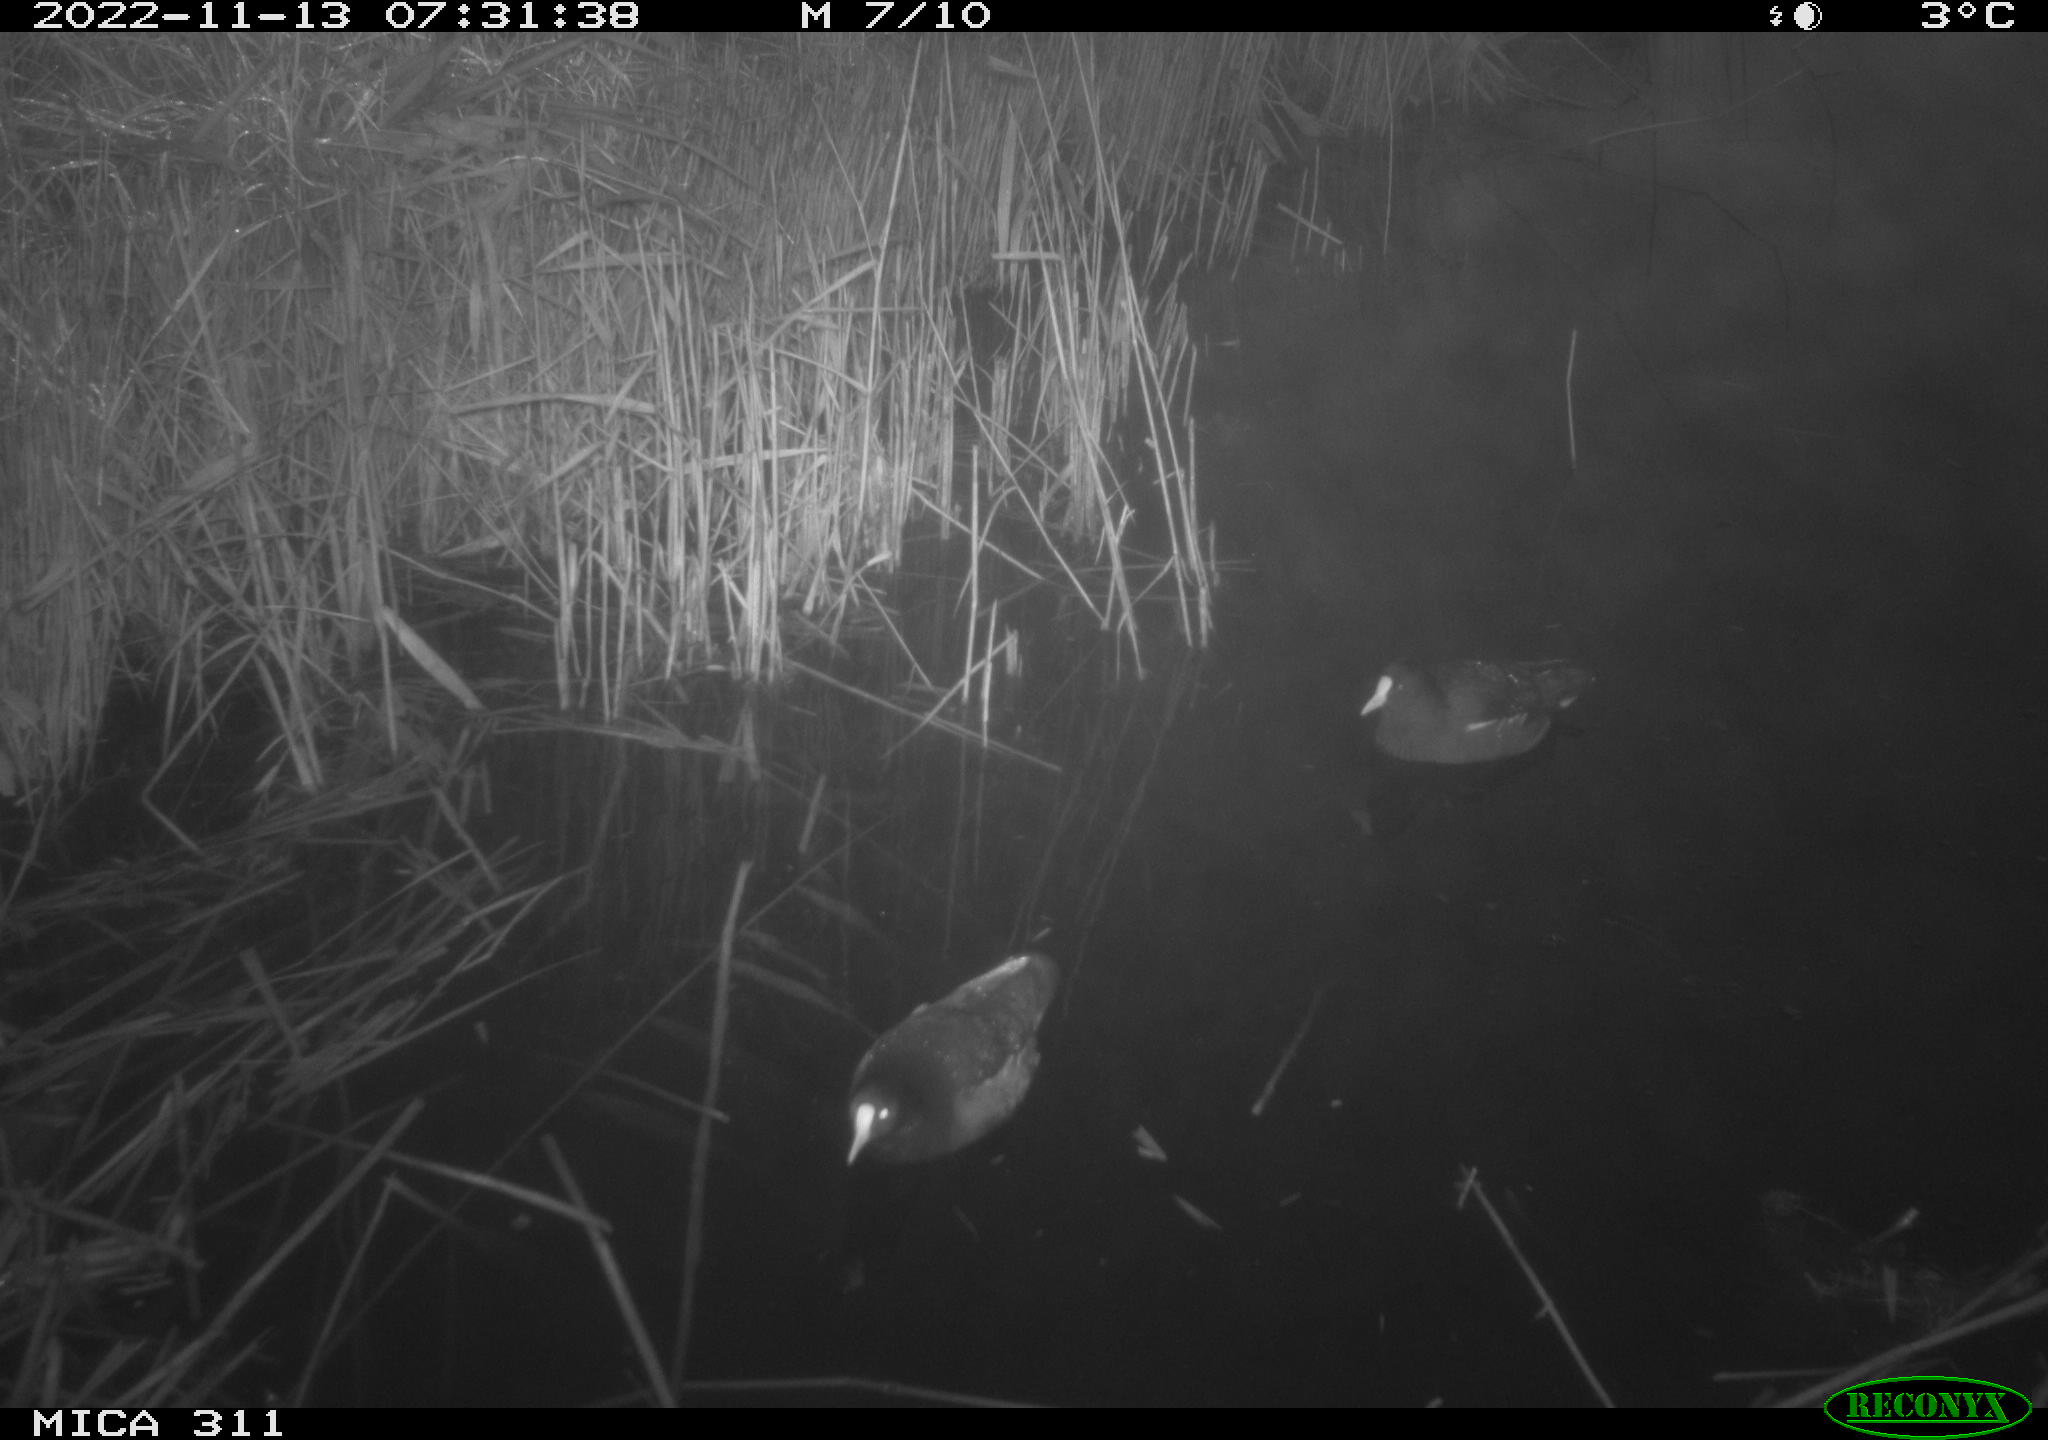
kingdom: Animalia
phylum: Chordata
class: Aves
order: Gruiformes
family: Rallidae
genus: Gallinula
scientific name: Gallinula chloropus
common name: Common moorhen
